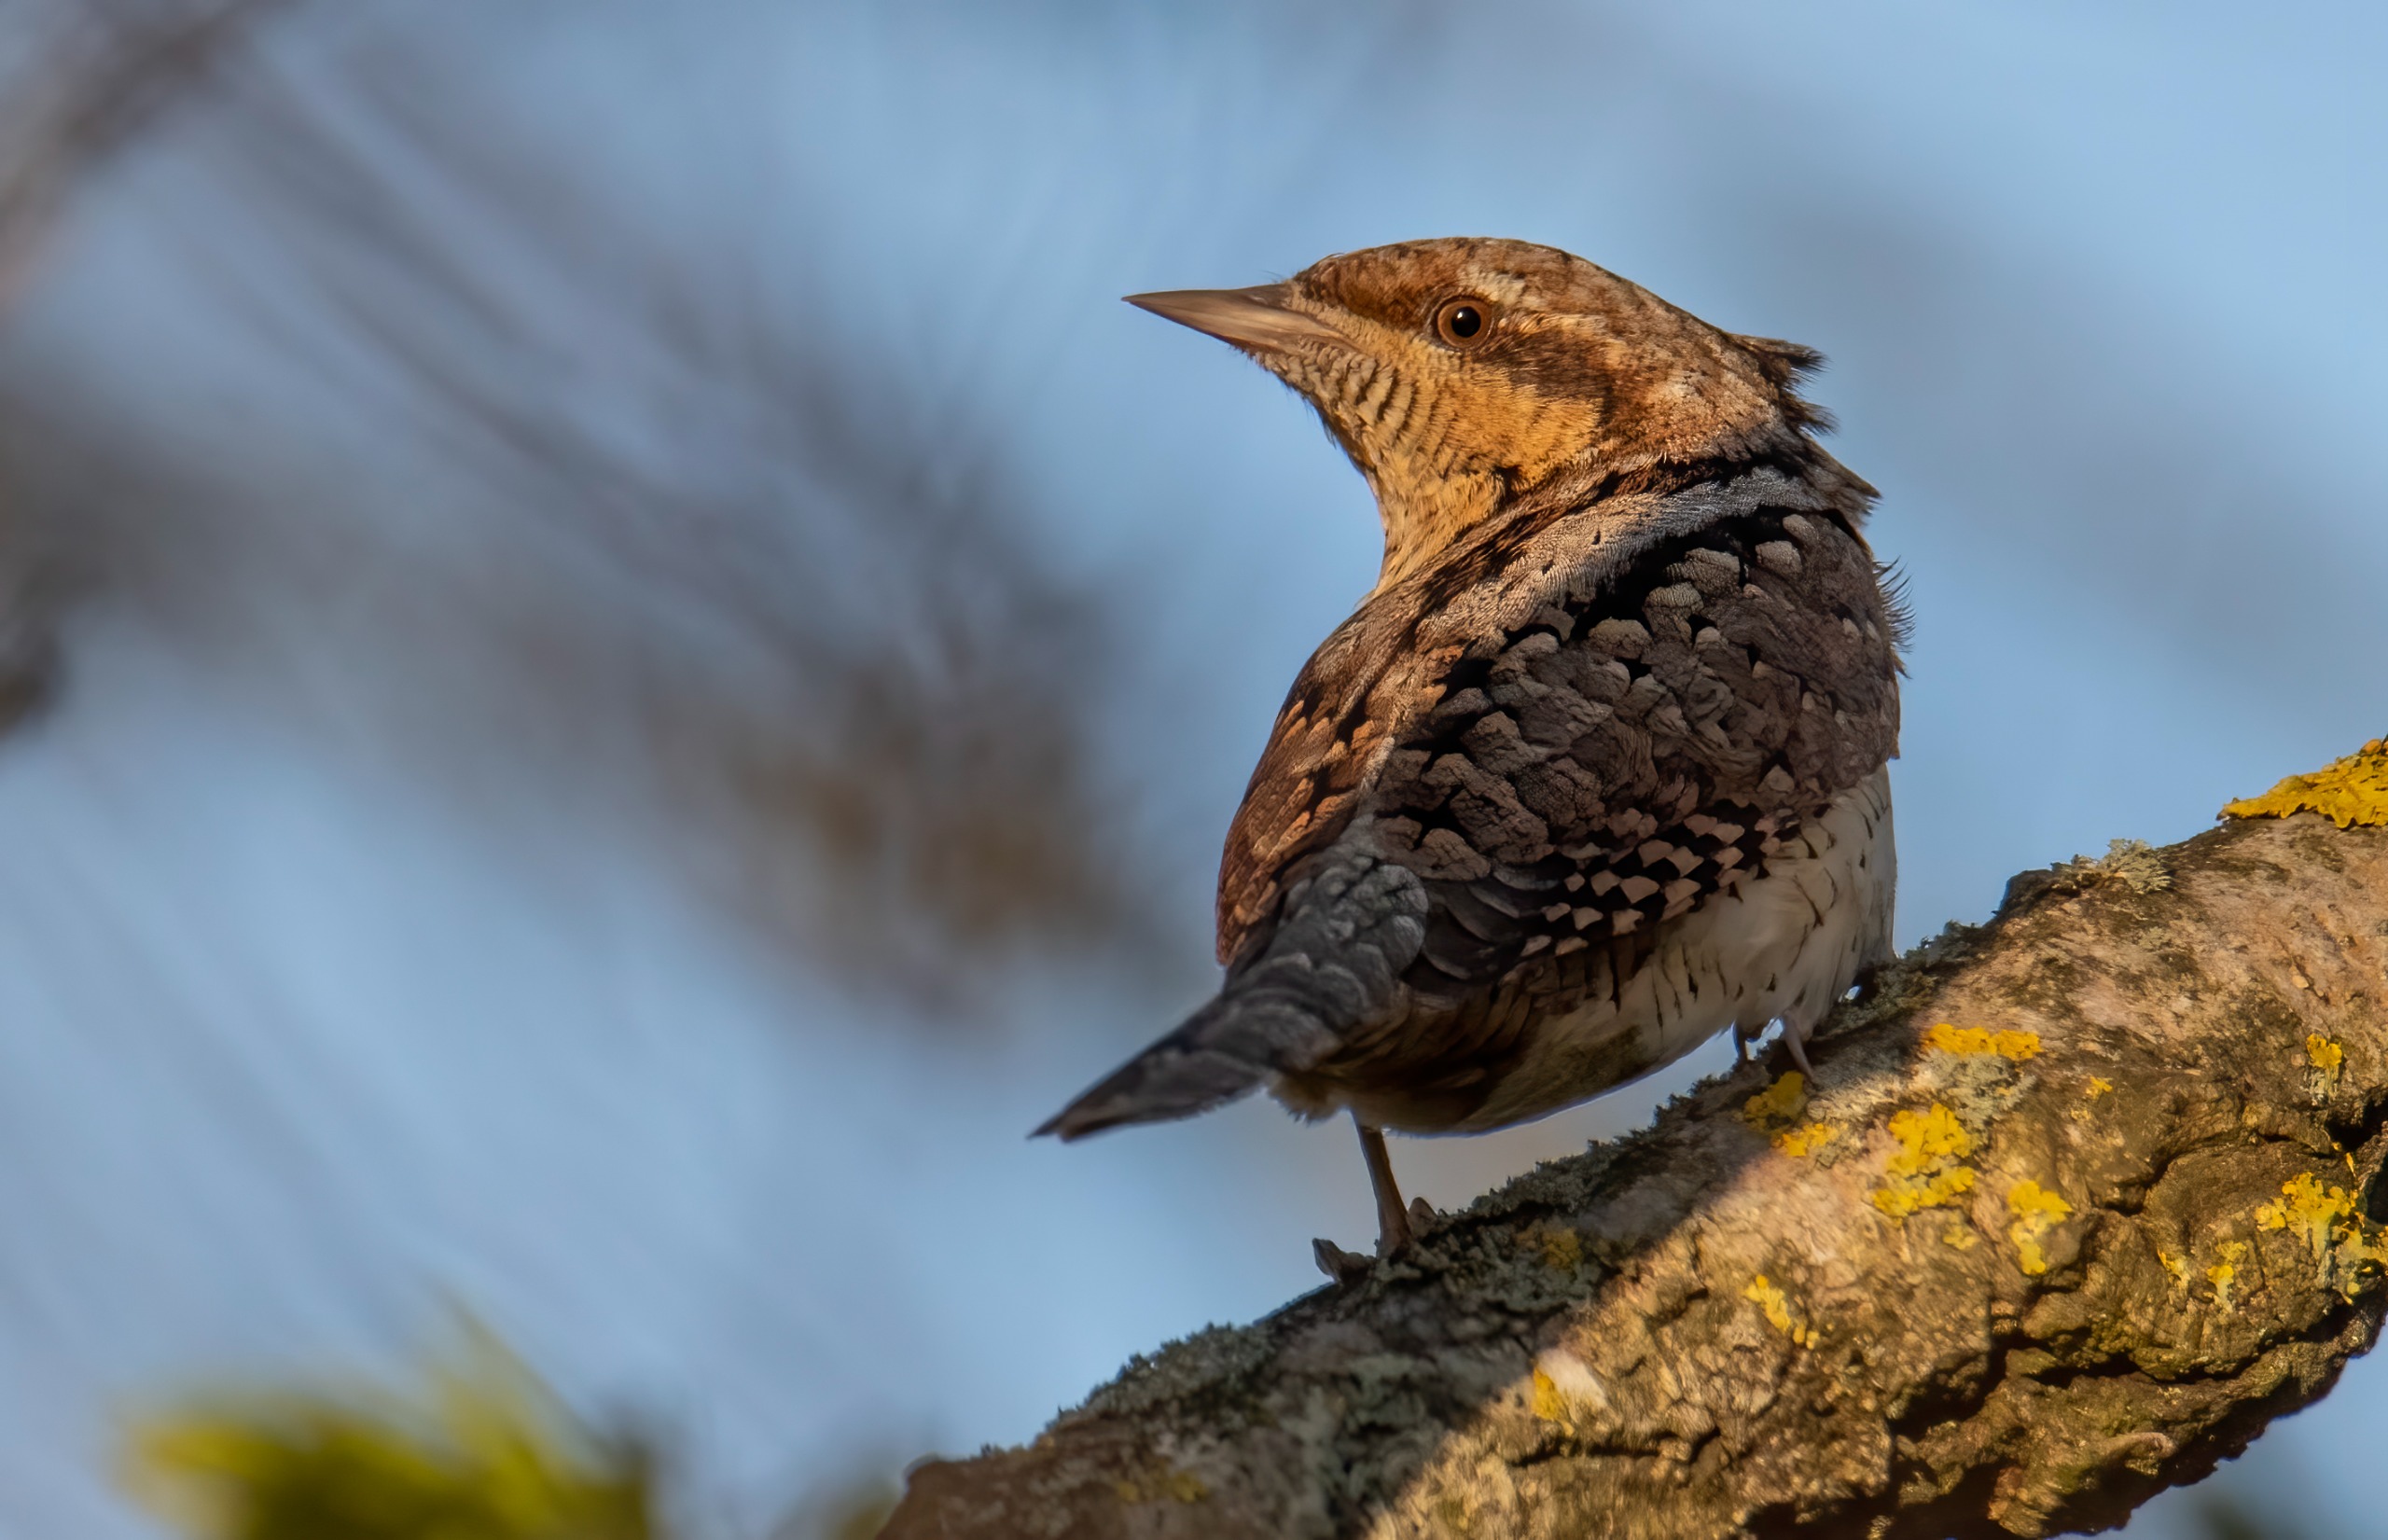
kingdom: Animalia
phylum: Chordata
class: Aves
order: Piciformes
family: Picidae
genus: Jynx
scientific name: Jynx torquilla
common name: Vendehals
